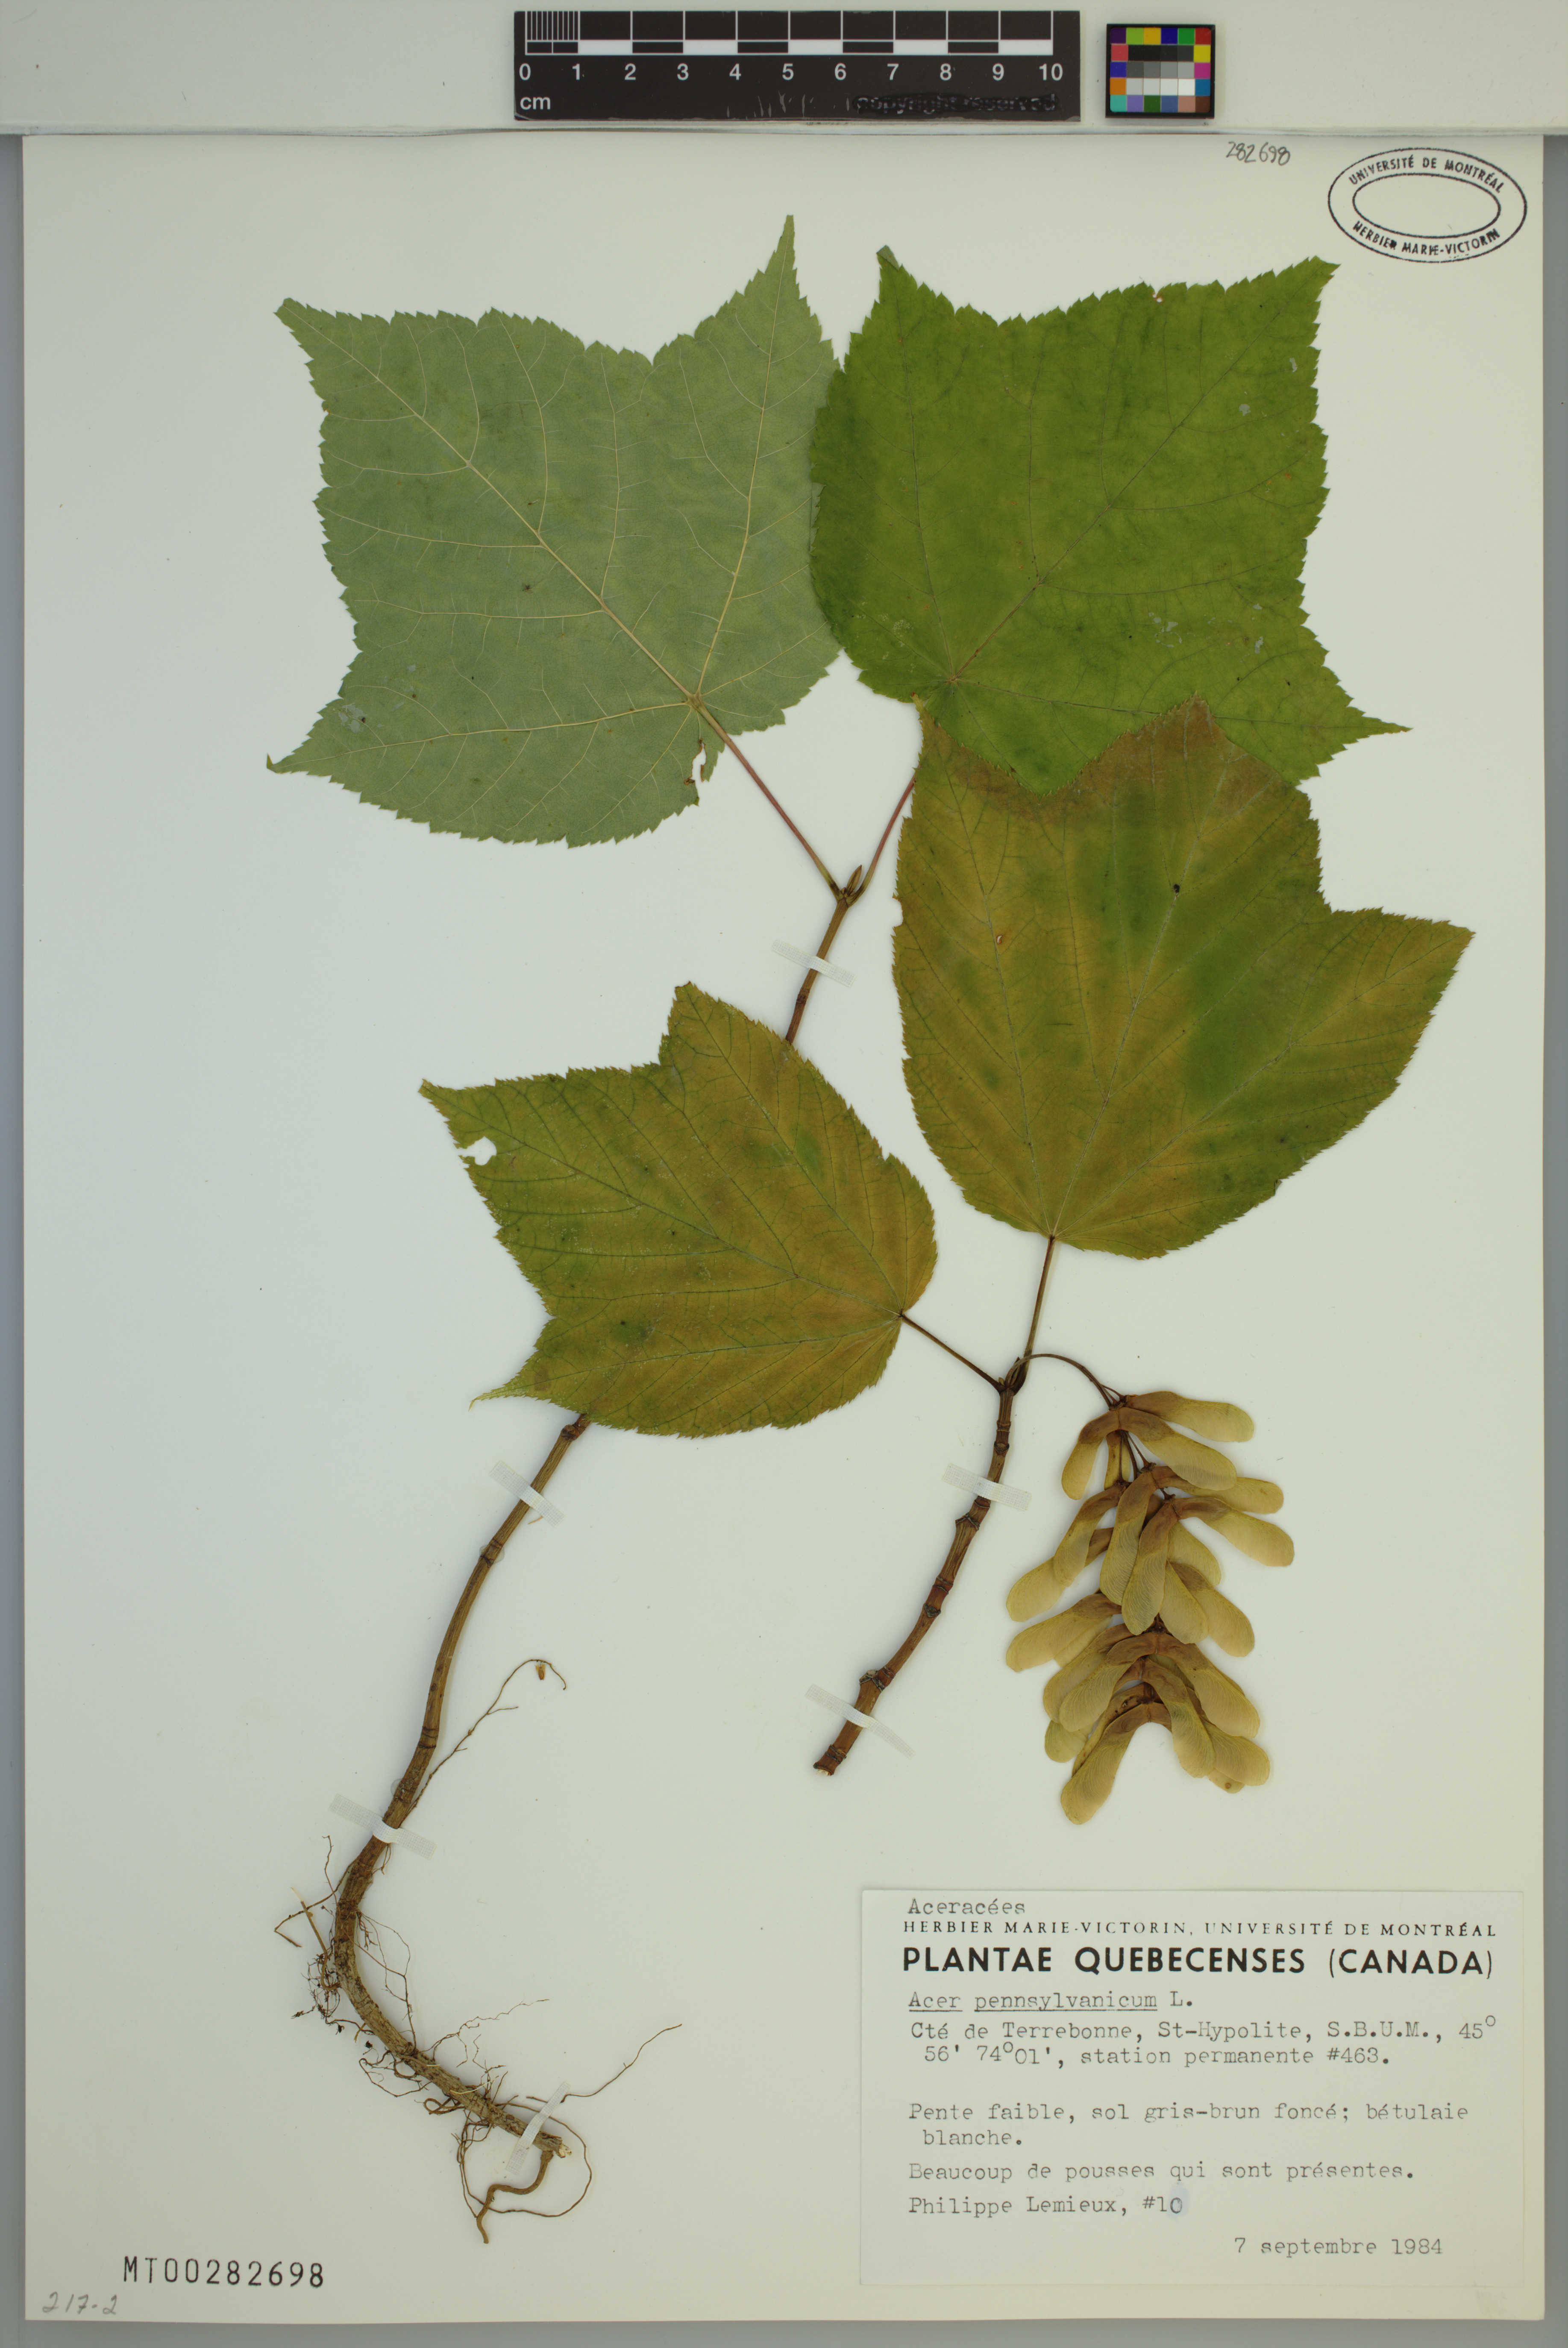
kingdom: Plantae
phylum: Tracheophyta
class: Magnoliopsida
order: Sapindales
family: Sapindaceae
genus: Acer
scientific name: Acer pensylvanicum
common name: Moosewood
